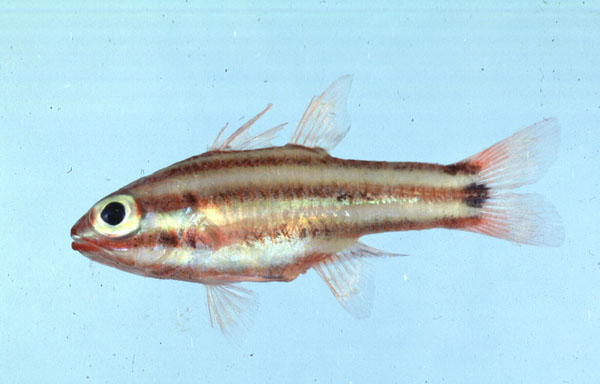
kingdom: Animalia
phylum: Chordata
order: Perciformes
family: Apogonidae
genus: Ostorhinchus
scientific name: Ostorhinchus angustatus
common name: Narrow-striped cardinalfish
